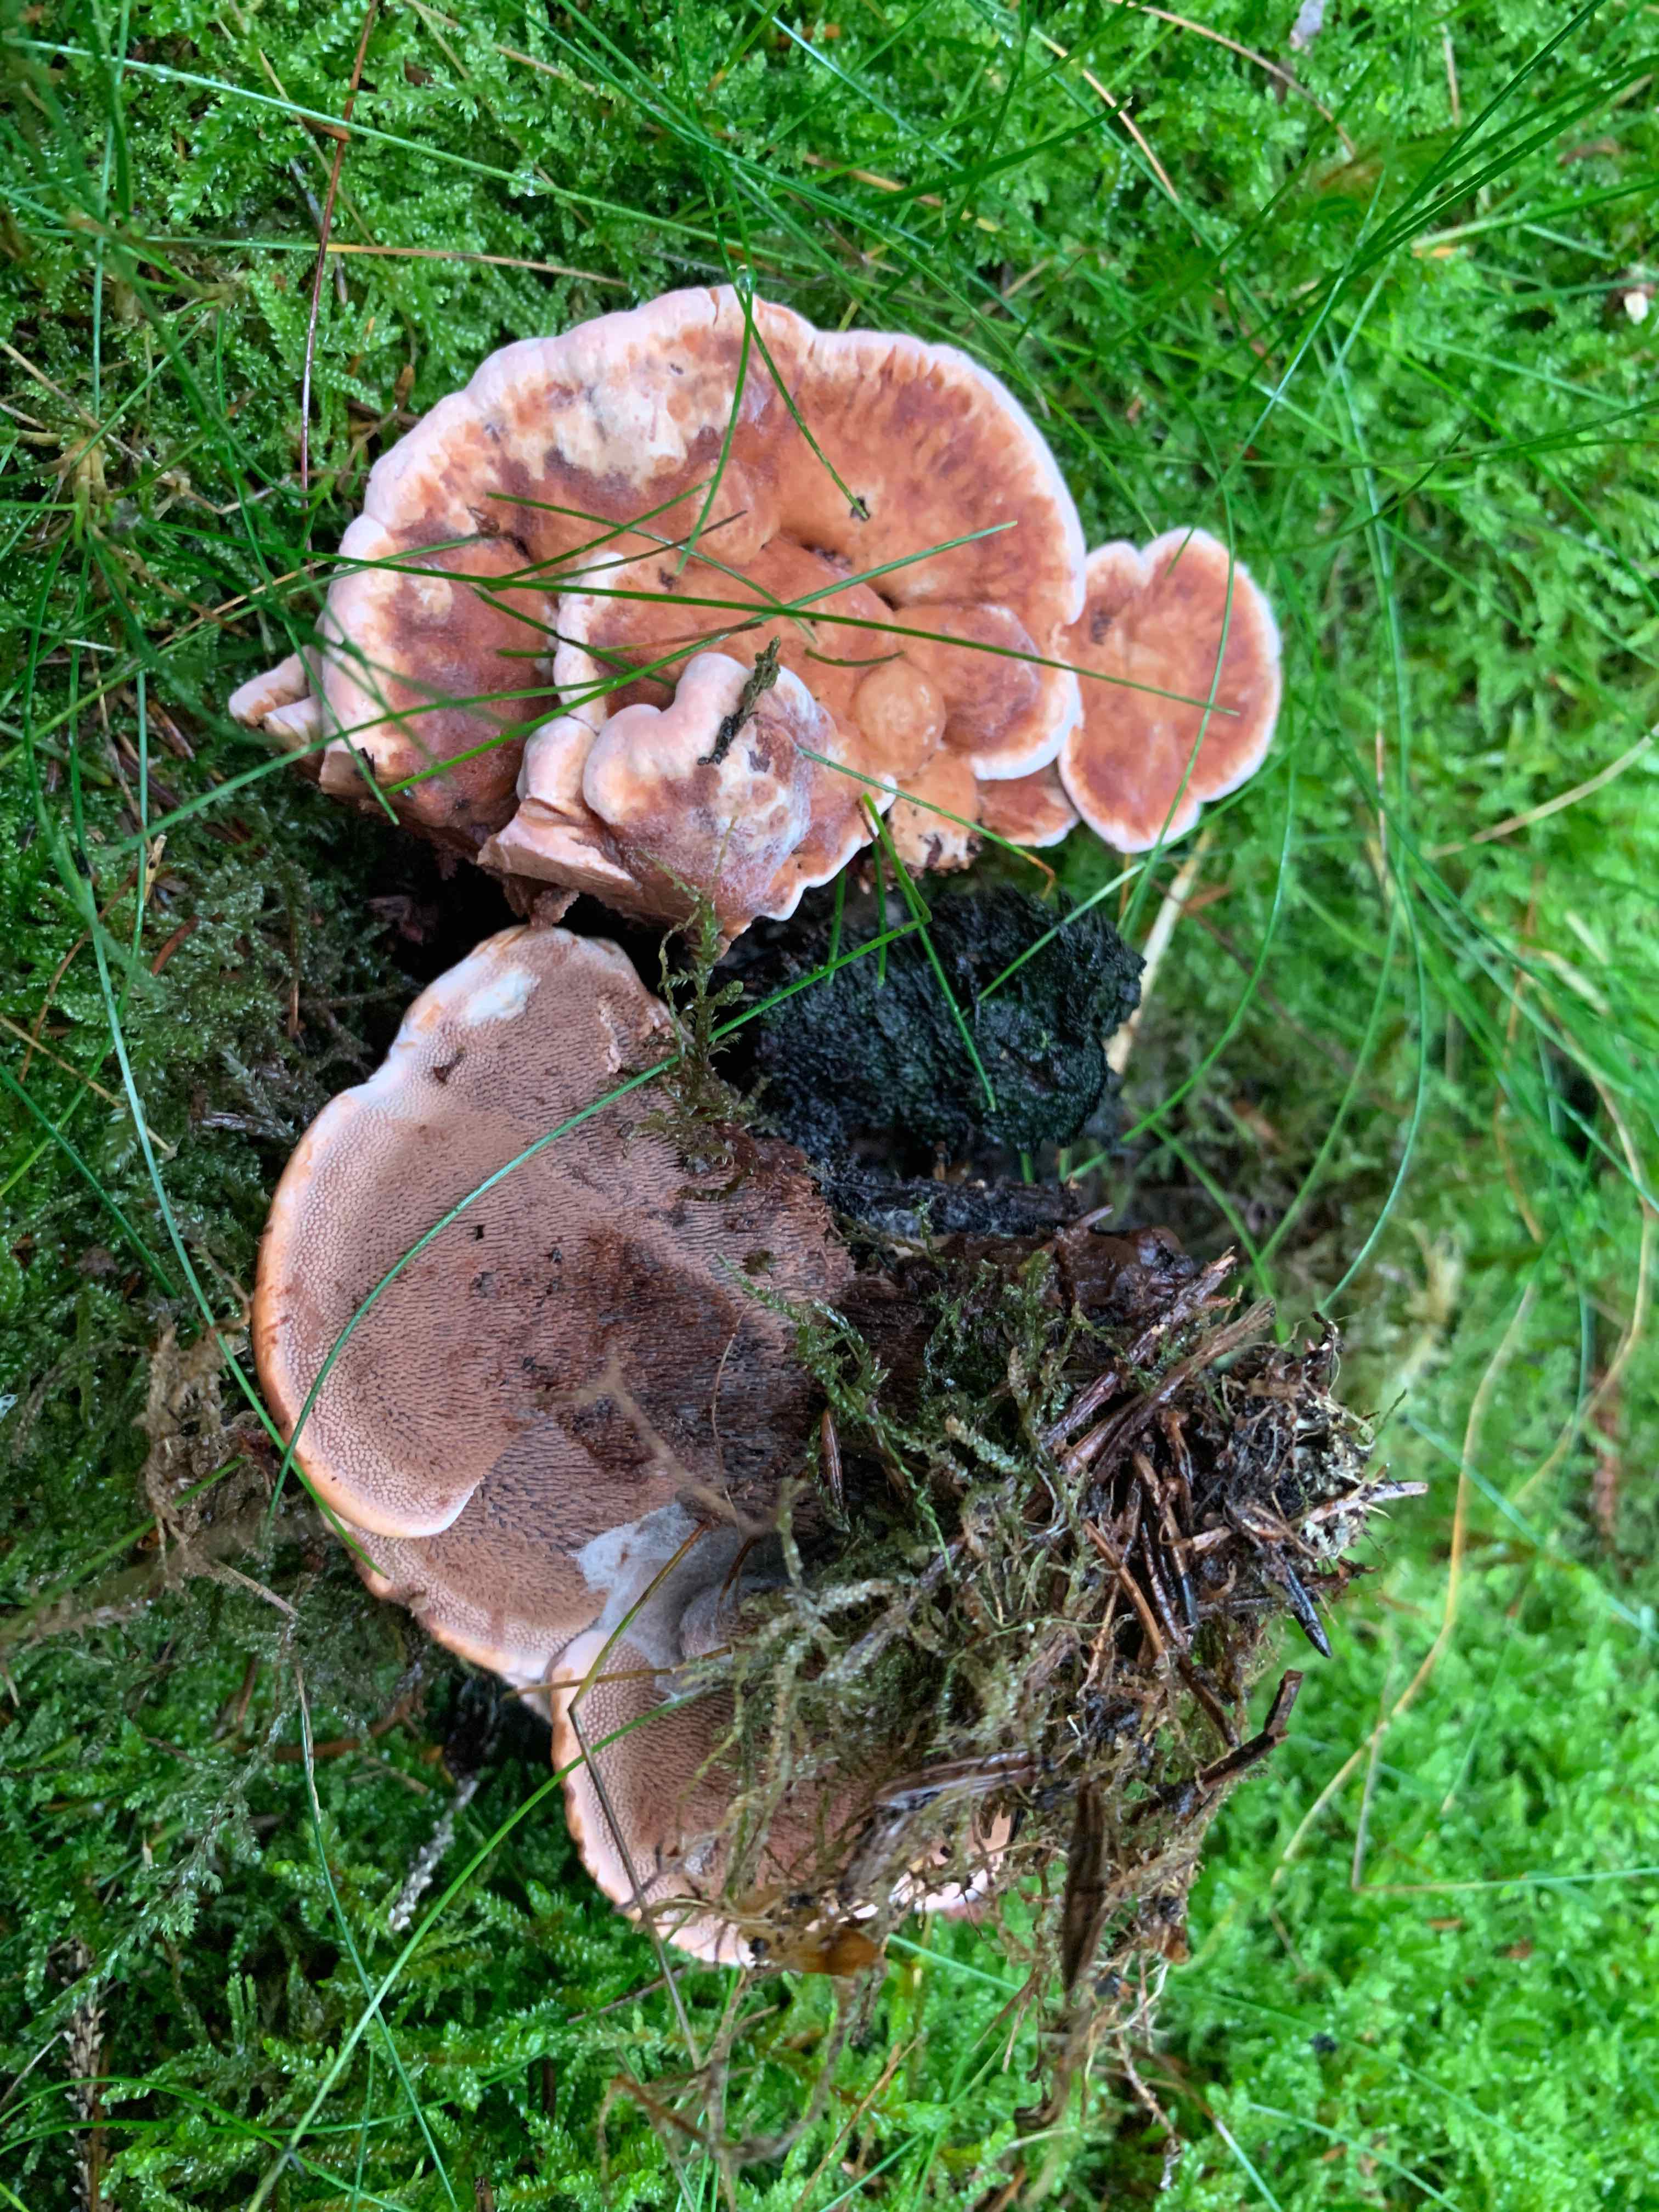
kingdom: Fungi
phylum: Basidiomycota
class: Agaricomycetes
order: Thelephorales
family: Bankeraceae
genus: Hydnellum
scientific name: Hydnellum ferrugineum
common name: rust-korkpigsvamp
